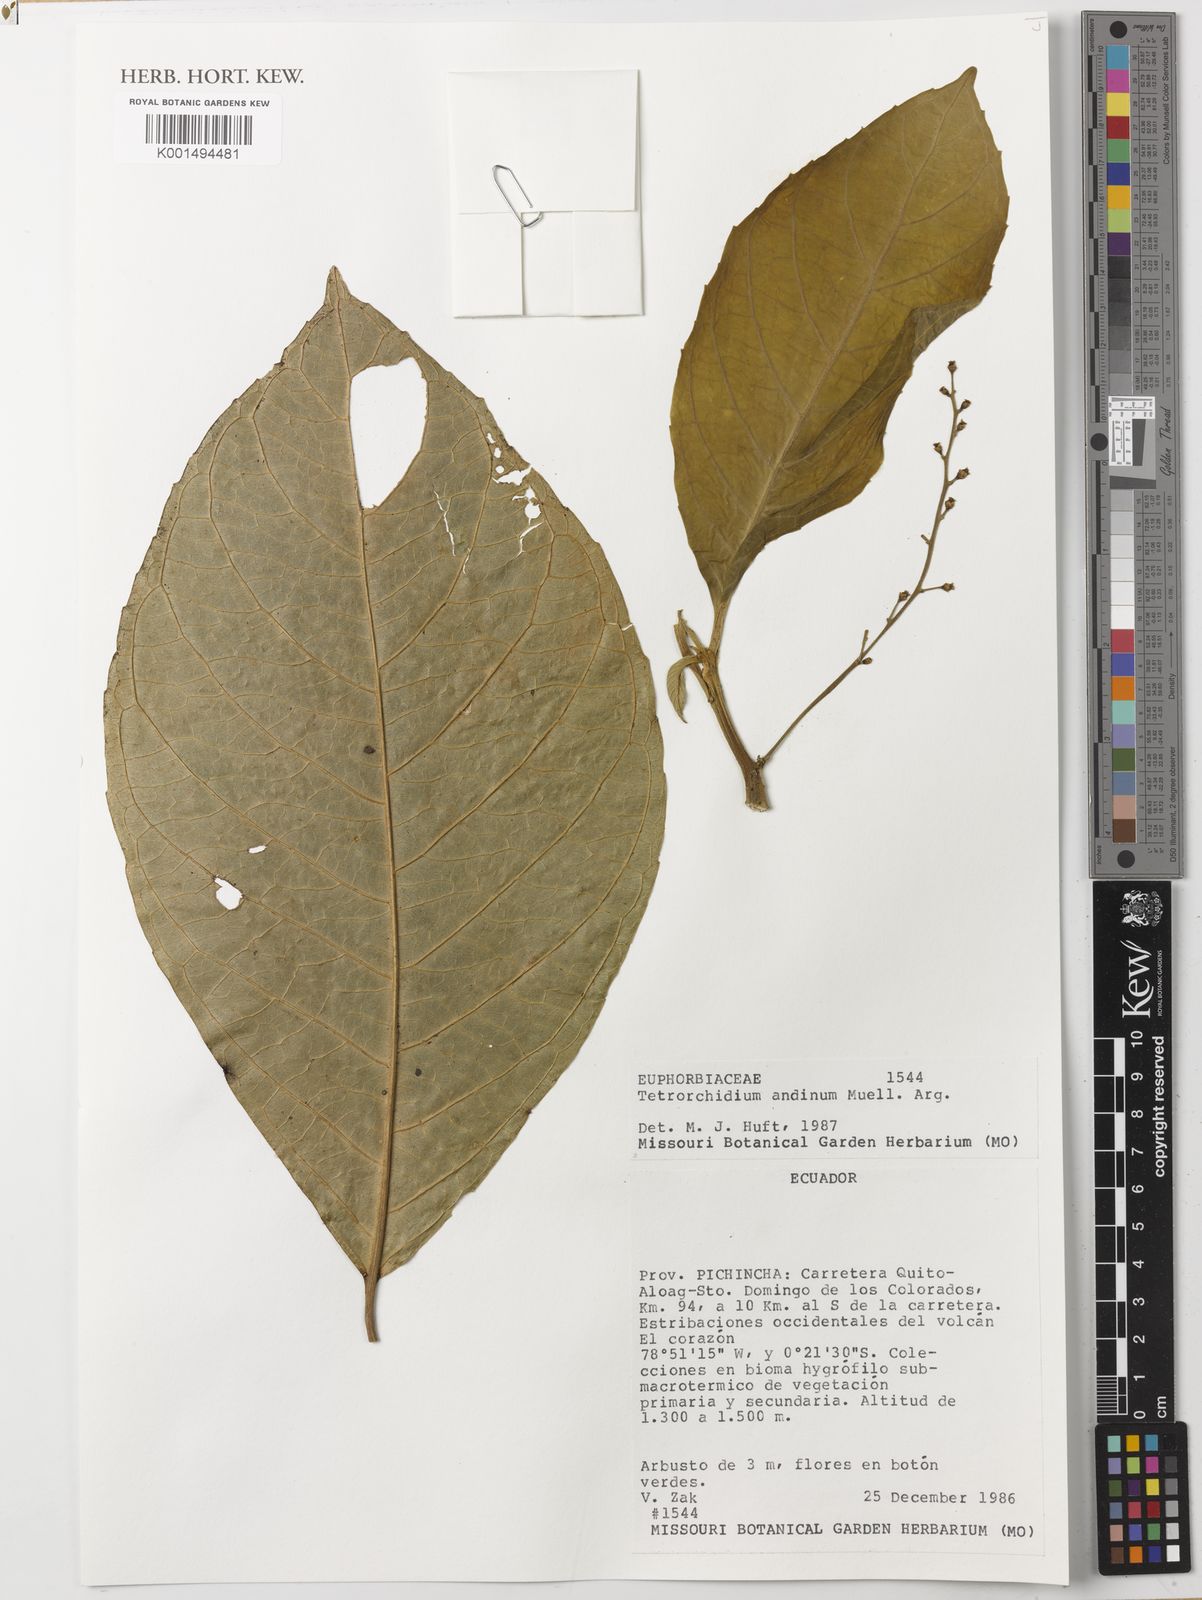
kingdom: Plantae
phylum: Tracheophyta
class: Magnoliopsida
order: Malpighiales
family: Euphorbiaceae
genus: Tetrorchidium
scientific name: Tetrorchidium andinum
